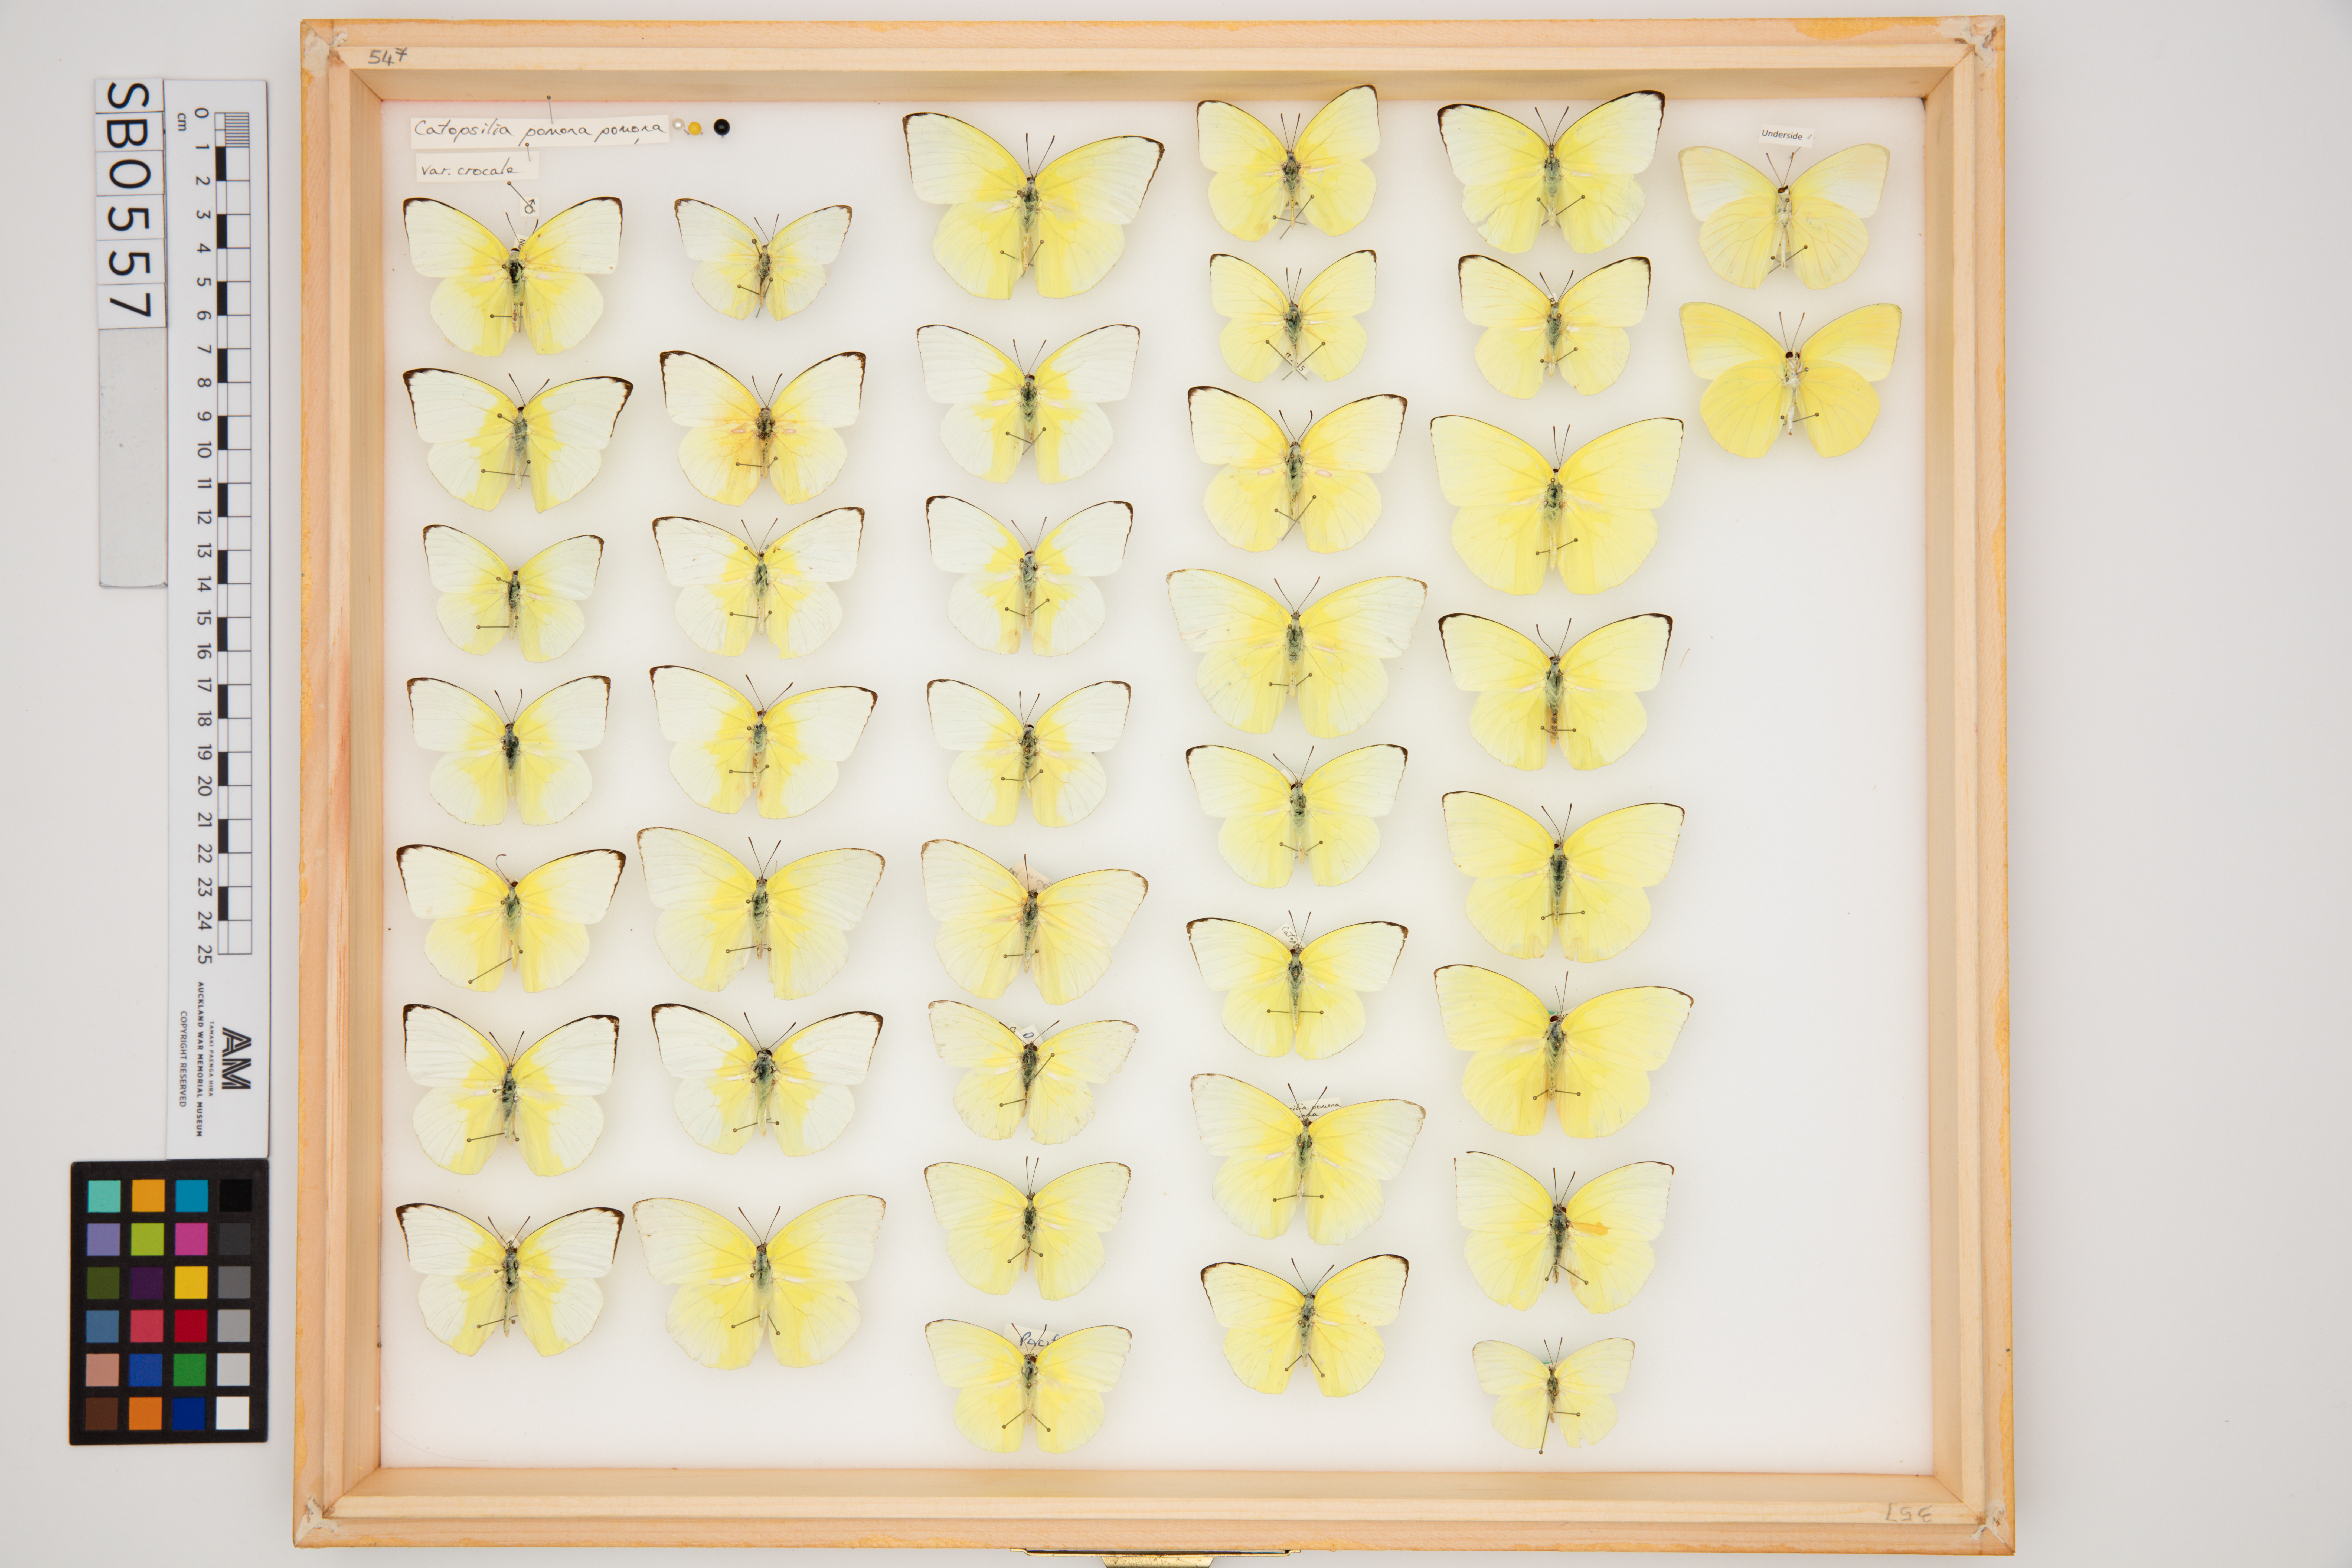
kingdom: Animalia
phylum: Arthropoda
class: Insecta
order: Lepidoptera
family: Pieridae
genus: Catopsilia
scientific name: Catopsilia pomona
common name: Common emigrant
